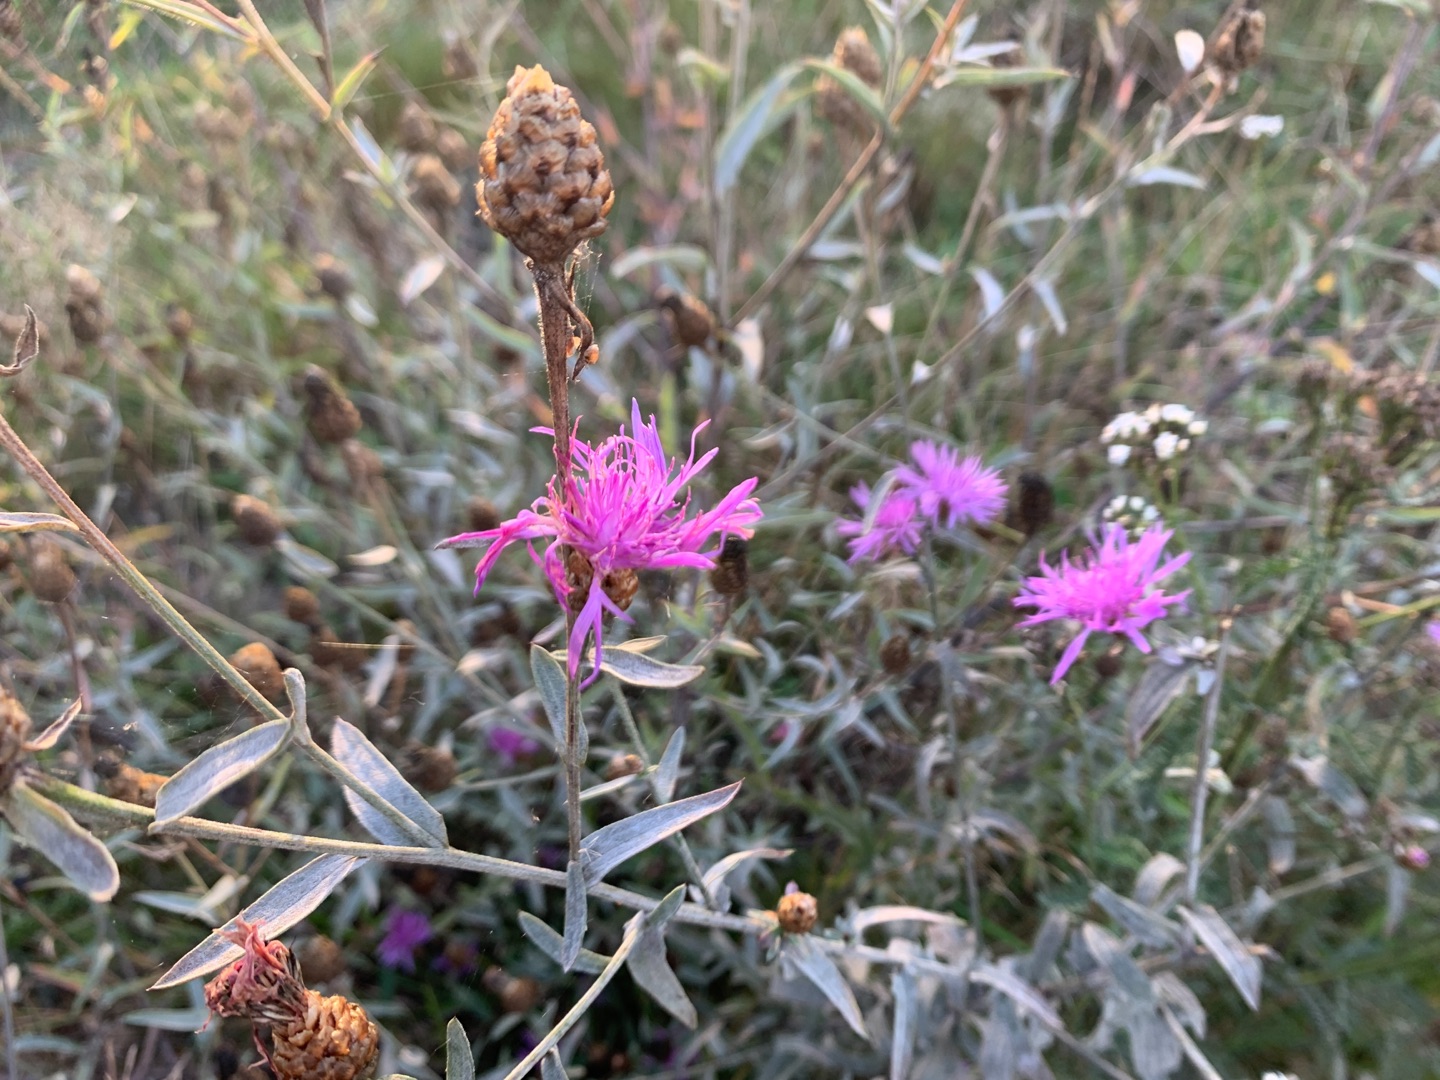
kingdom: Plantae
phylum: Tracheophyta
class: Magnoliopsida
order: Asterales
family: Asteraceae
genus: Centaurea
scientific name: Centaurea jacea
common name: Almindelig knopurt
